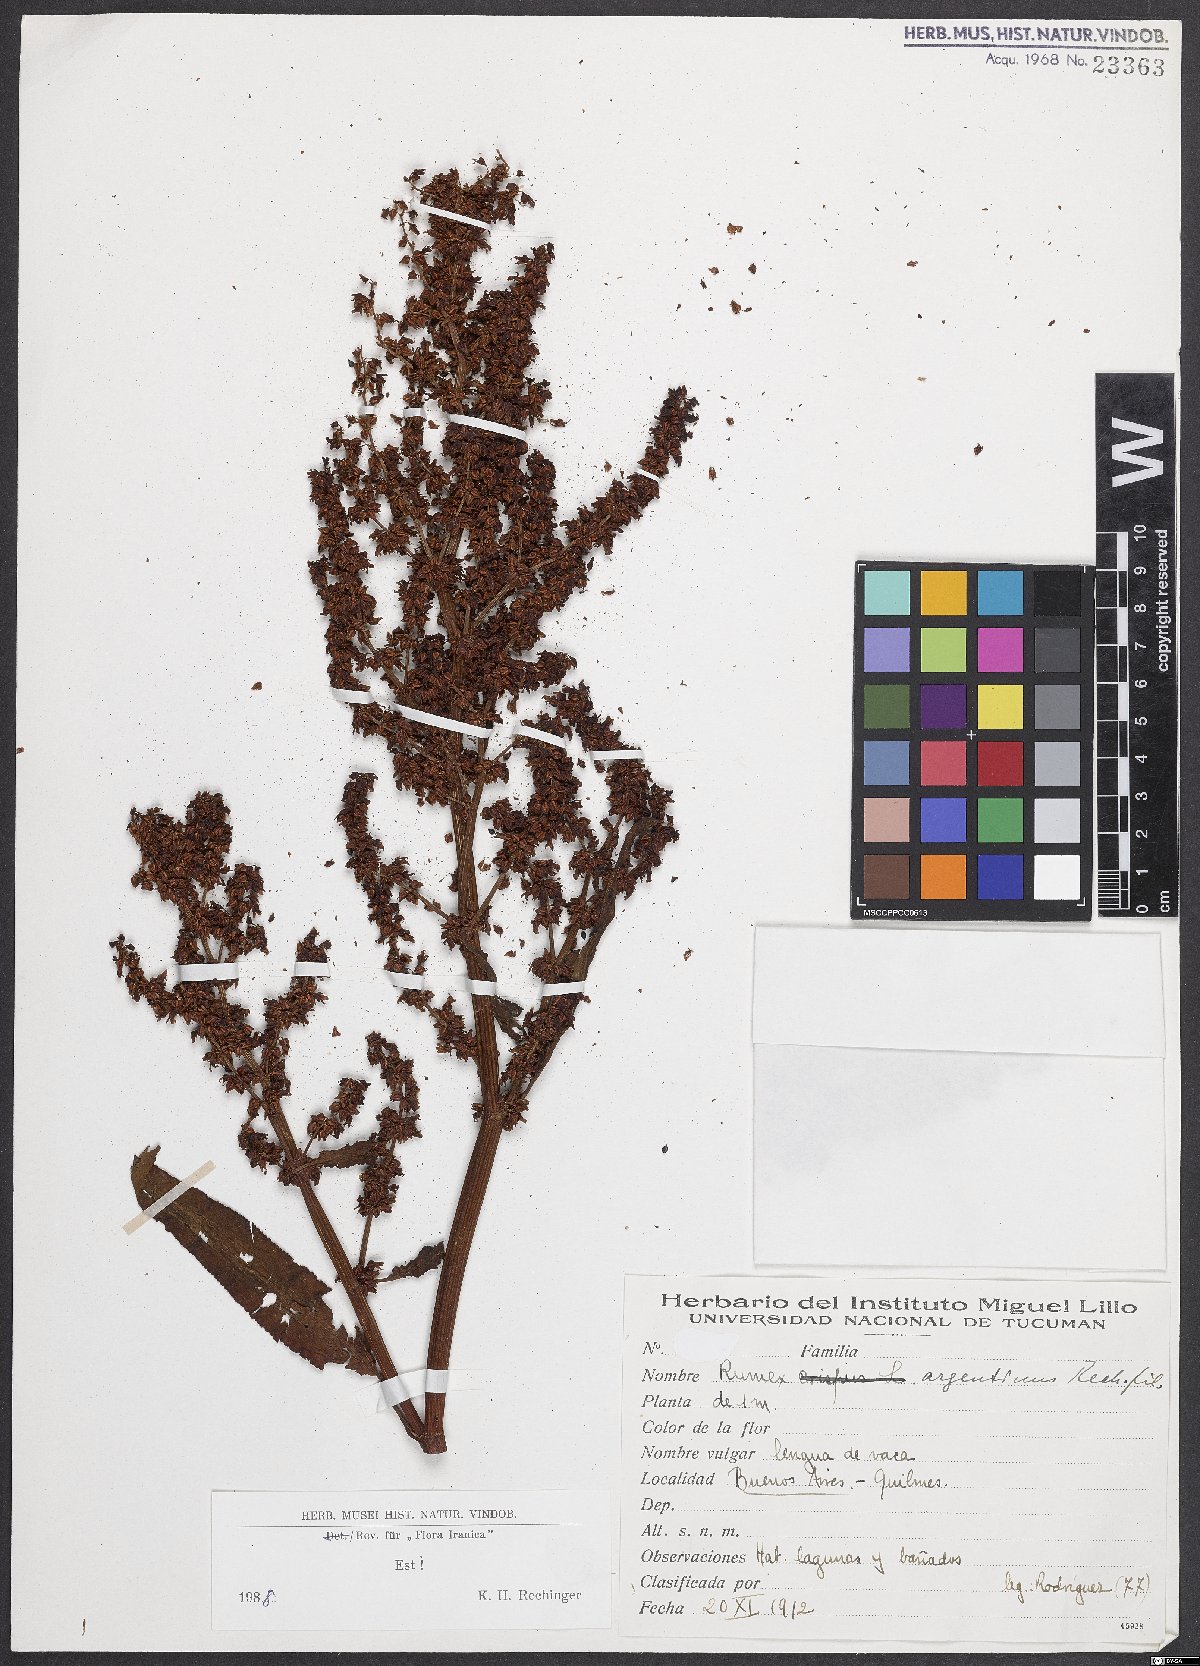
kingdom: Plantae
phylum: Tracheophyta
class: Magnoliopsida
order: Caryophyllales
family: Polygonaceae
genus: Rumex
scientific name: Rumex argentinus
